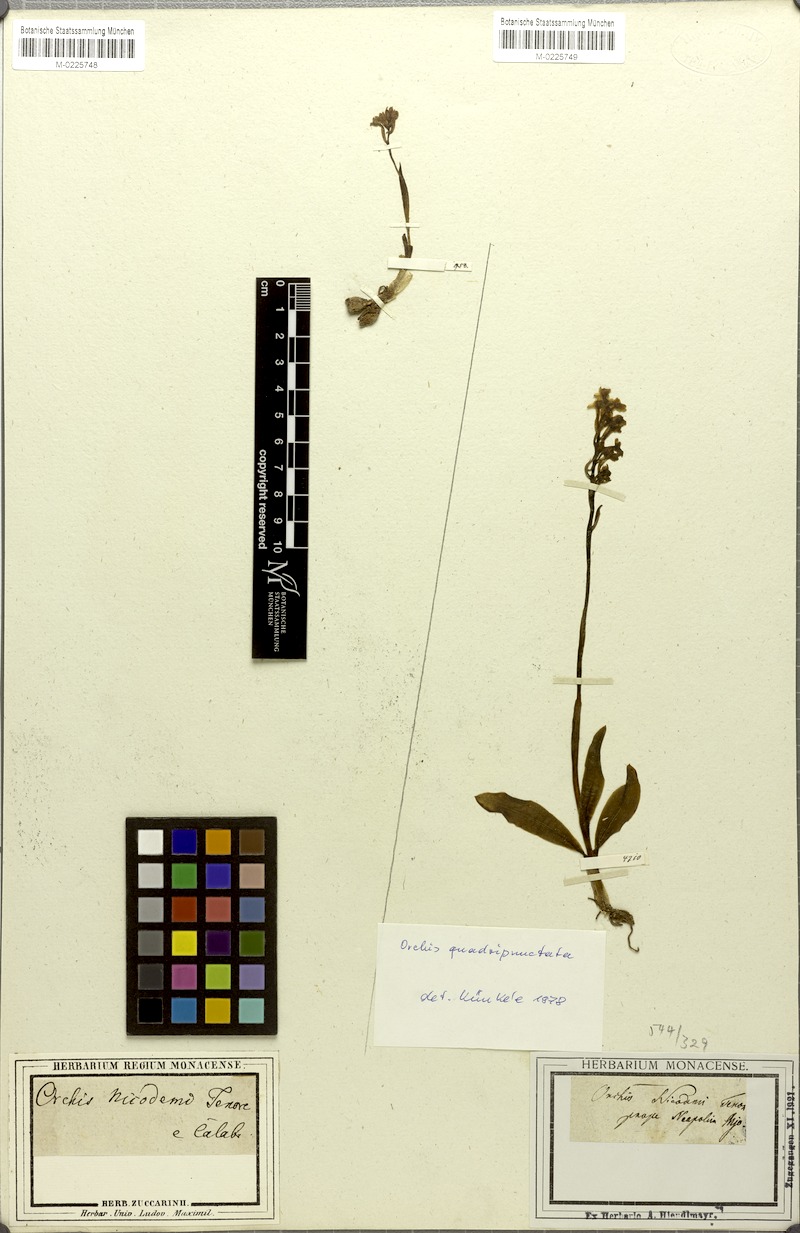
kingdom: Plantae
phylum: Tracheophyta
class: Liliopsida
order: Asparagales
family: Orchidaceae
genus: Orchis
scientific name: Orchis quadripunctata
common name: Four-spotted orchid
